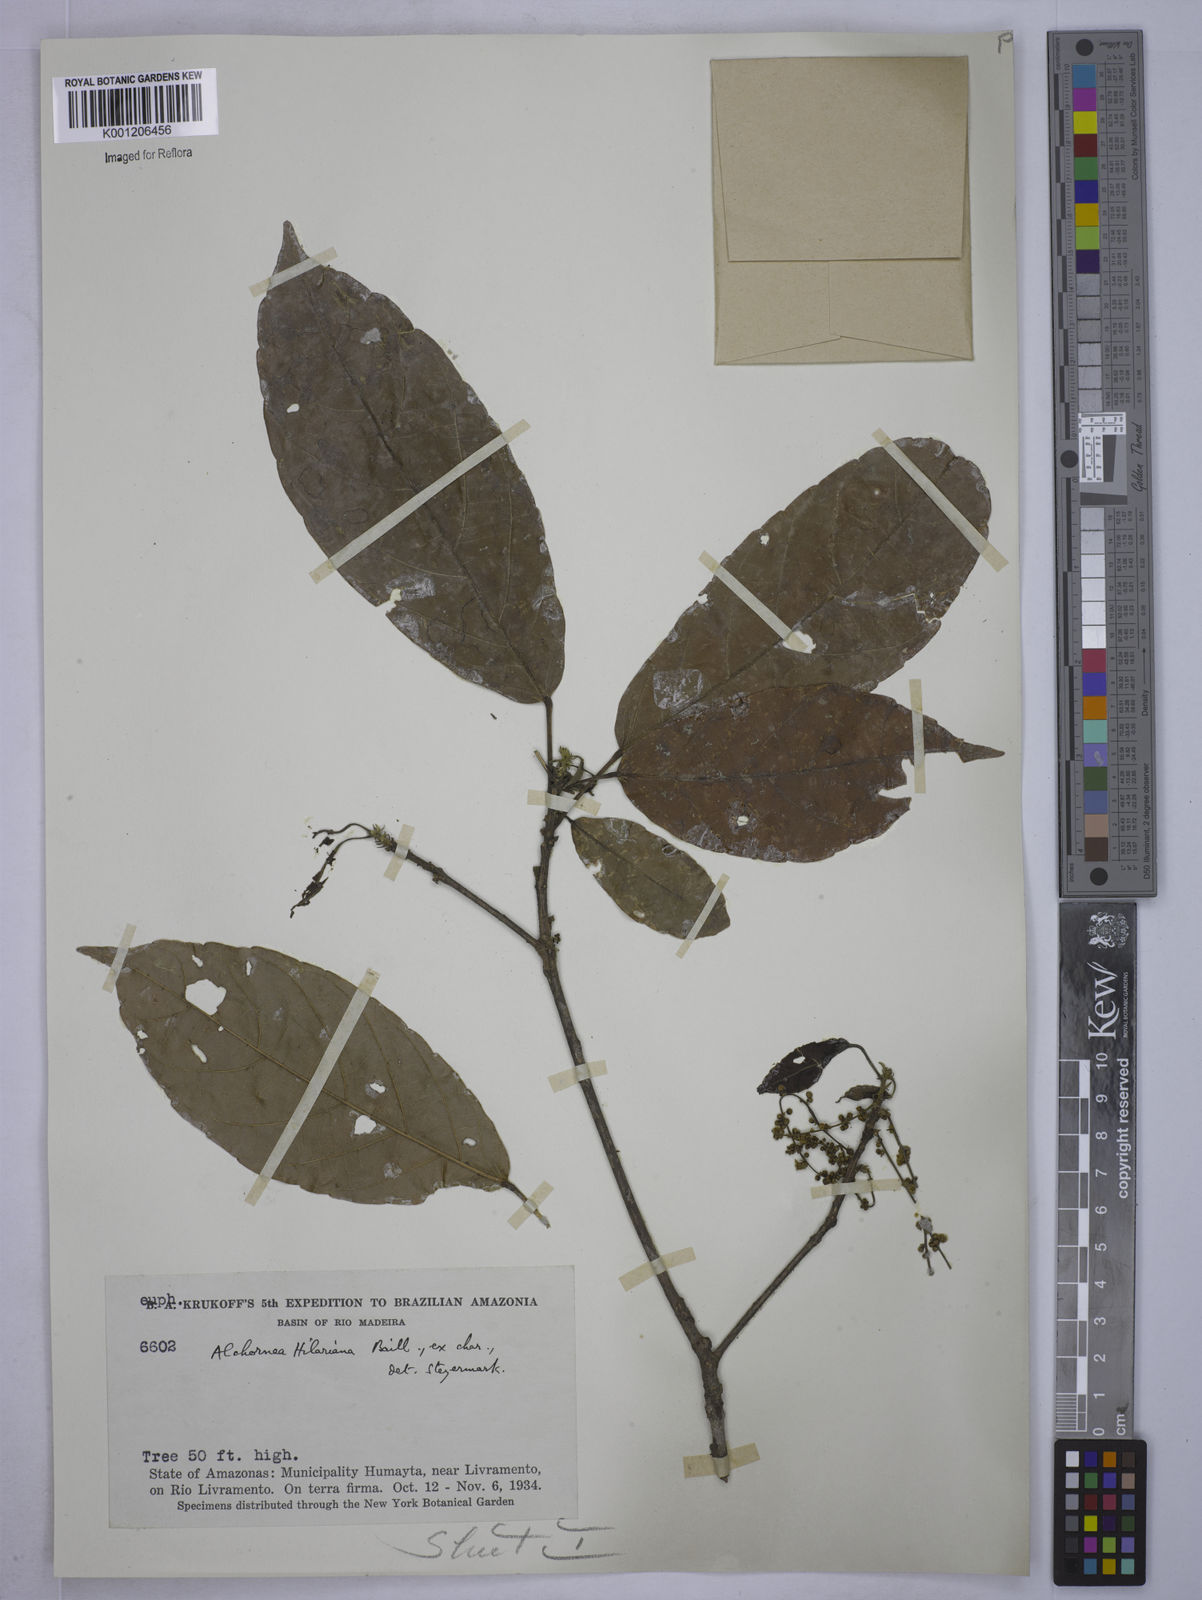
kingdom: Plantae
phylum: Tracheophyta
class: Magnoliopsida
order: Malpighiales
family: Euphorbiaceae
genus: Conceveiba
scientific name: Conceveiba praealta
